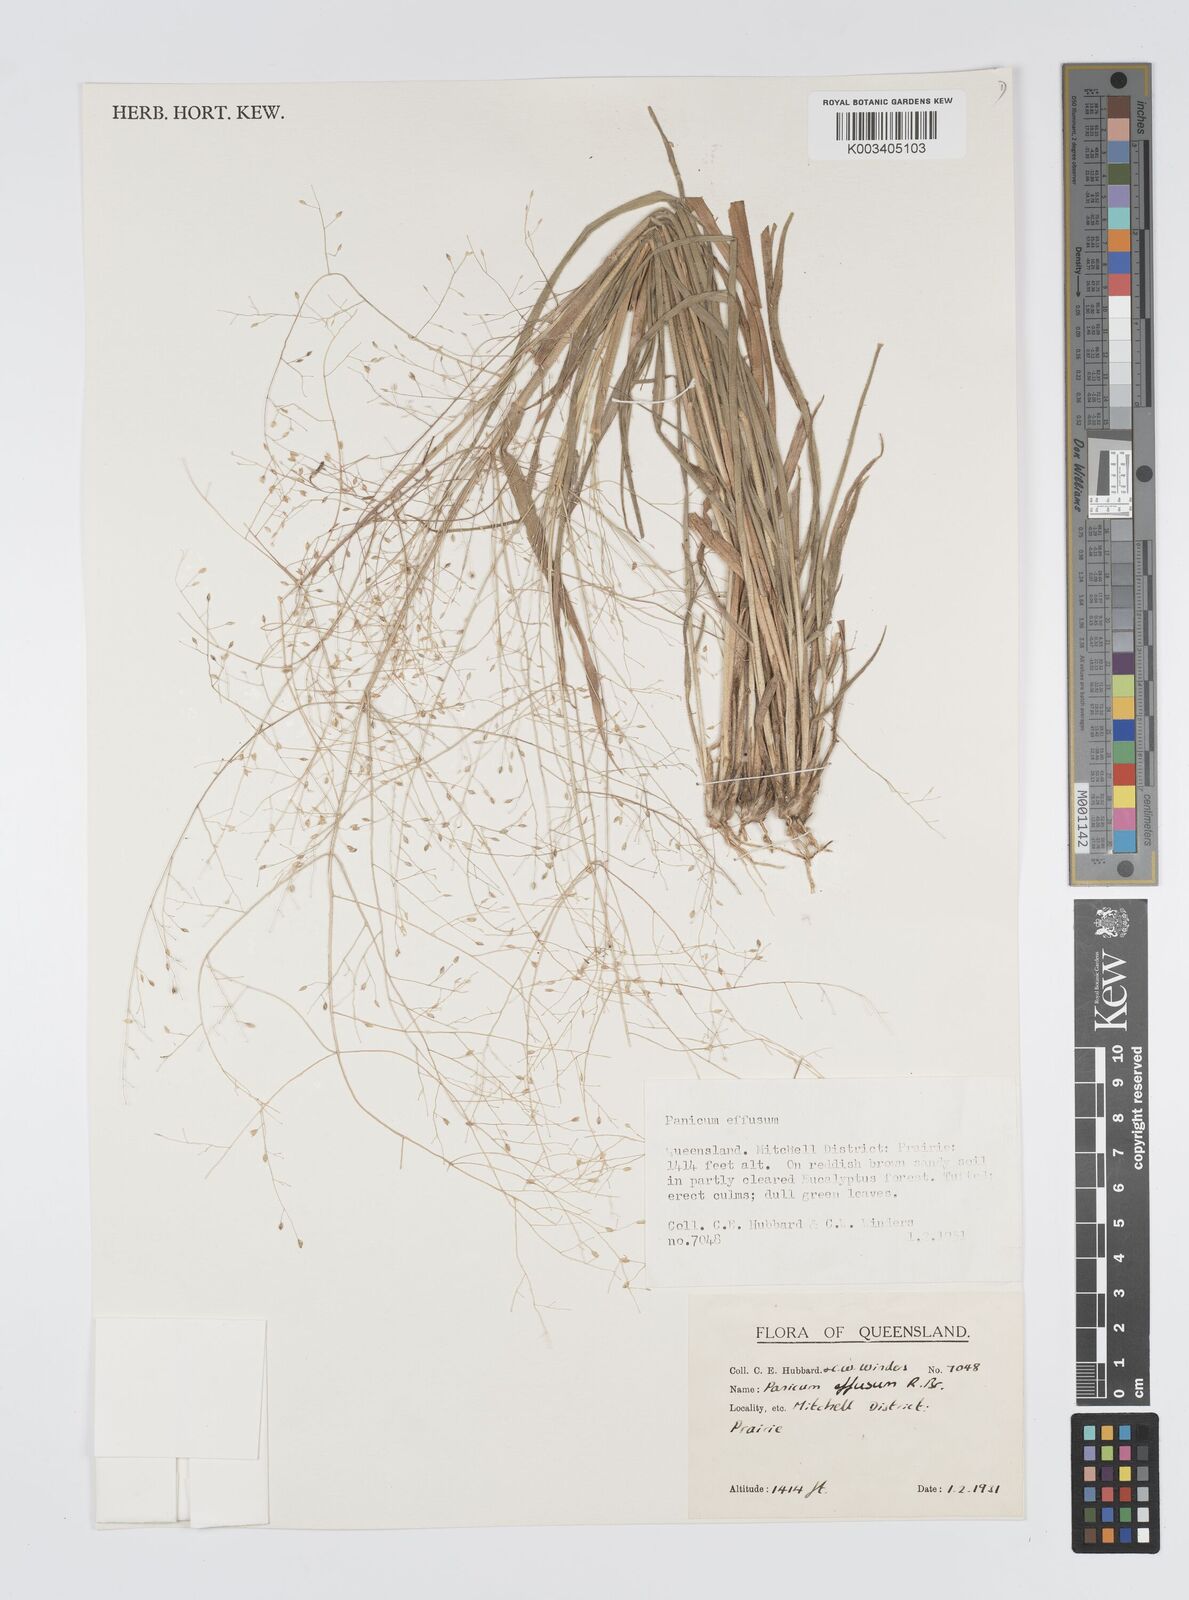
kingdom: Plantae
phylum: Tracheophyta
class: Liliopsida
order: Poales
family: Poaceae
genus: Panicum
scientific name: Panicum effusum
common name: Hairy panic grass
